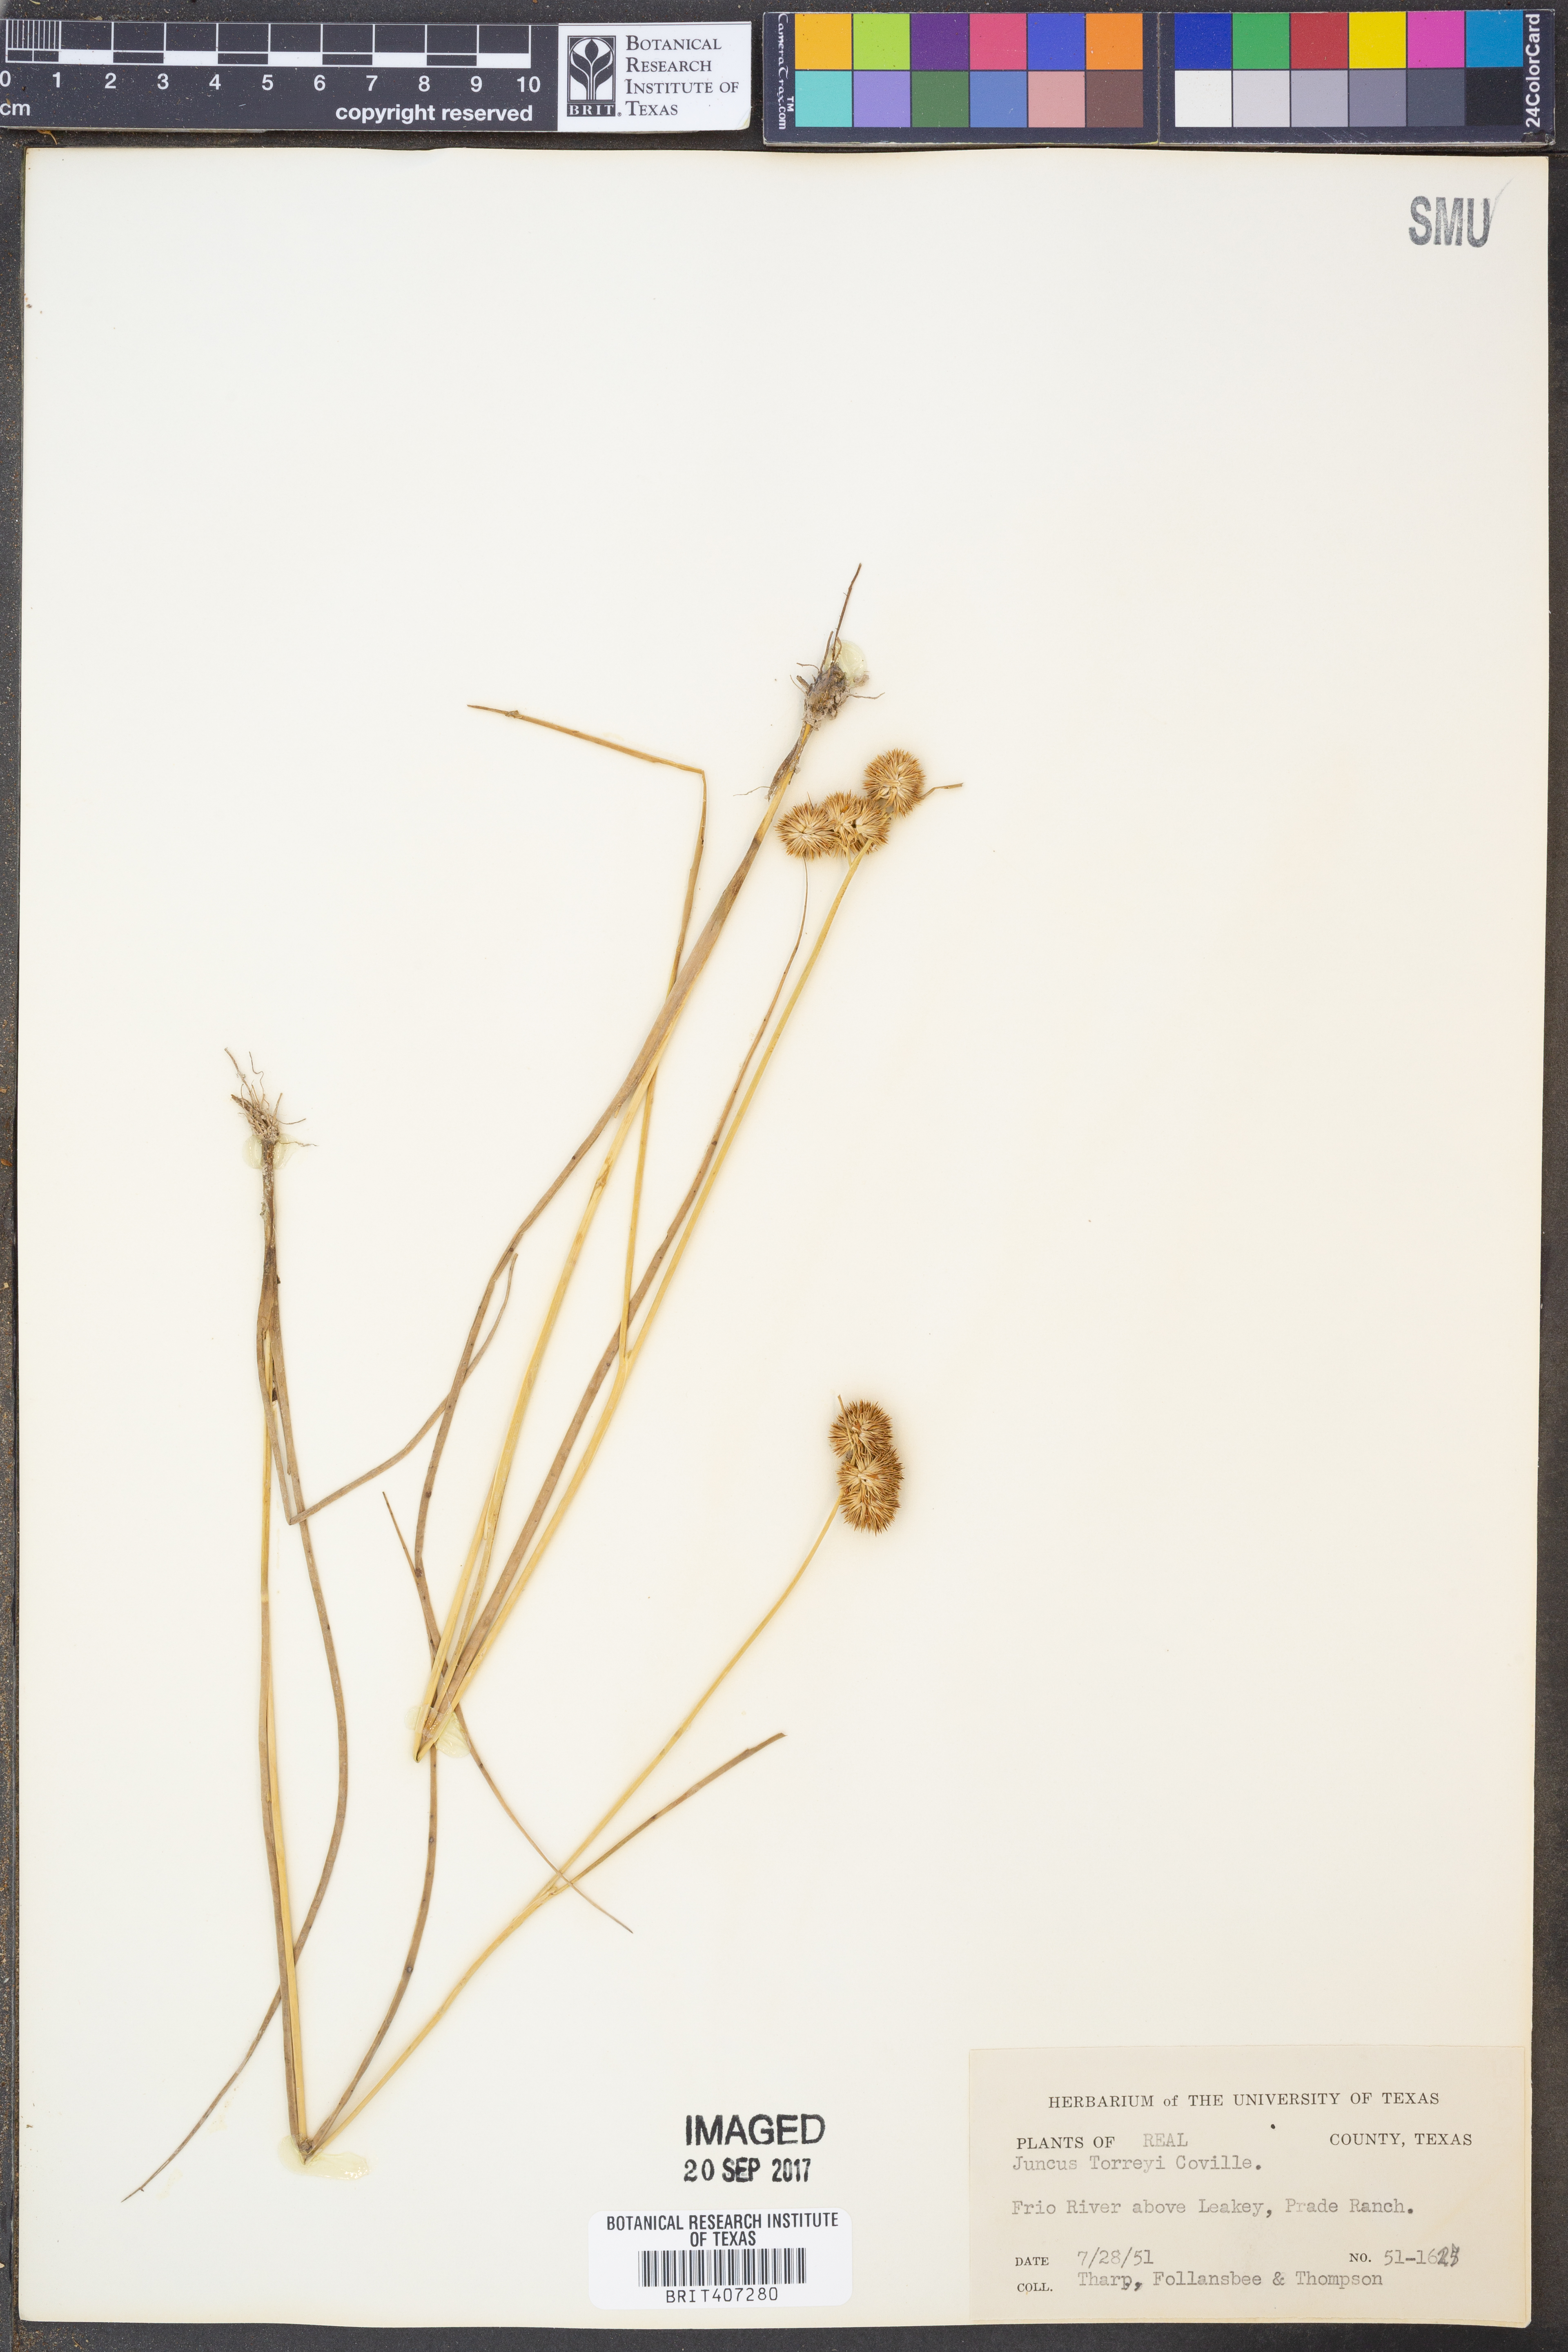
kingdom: Plantae
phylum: Tracheophyta
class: Liliopsida
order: Poales
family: Juncaceae
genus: Juncus
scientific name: Juncus torreyi
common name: Torrey's rush
